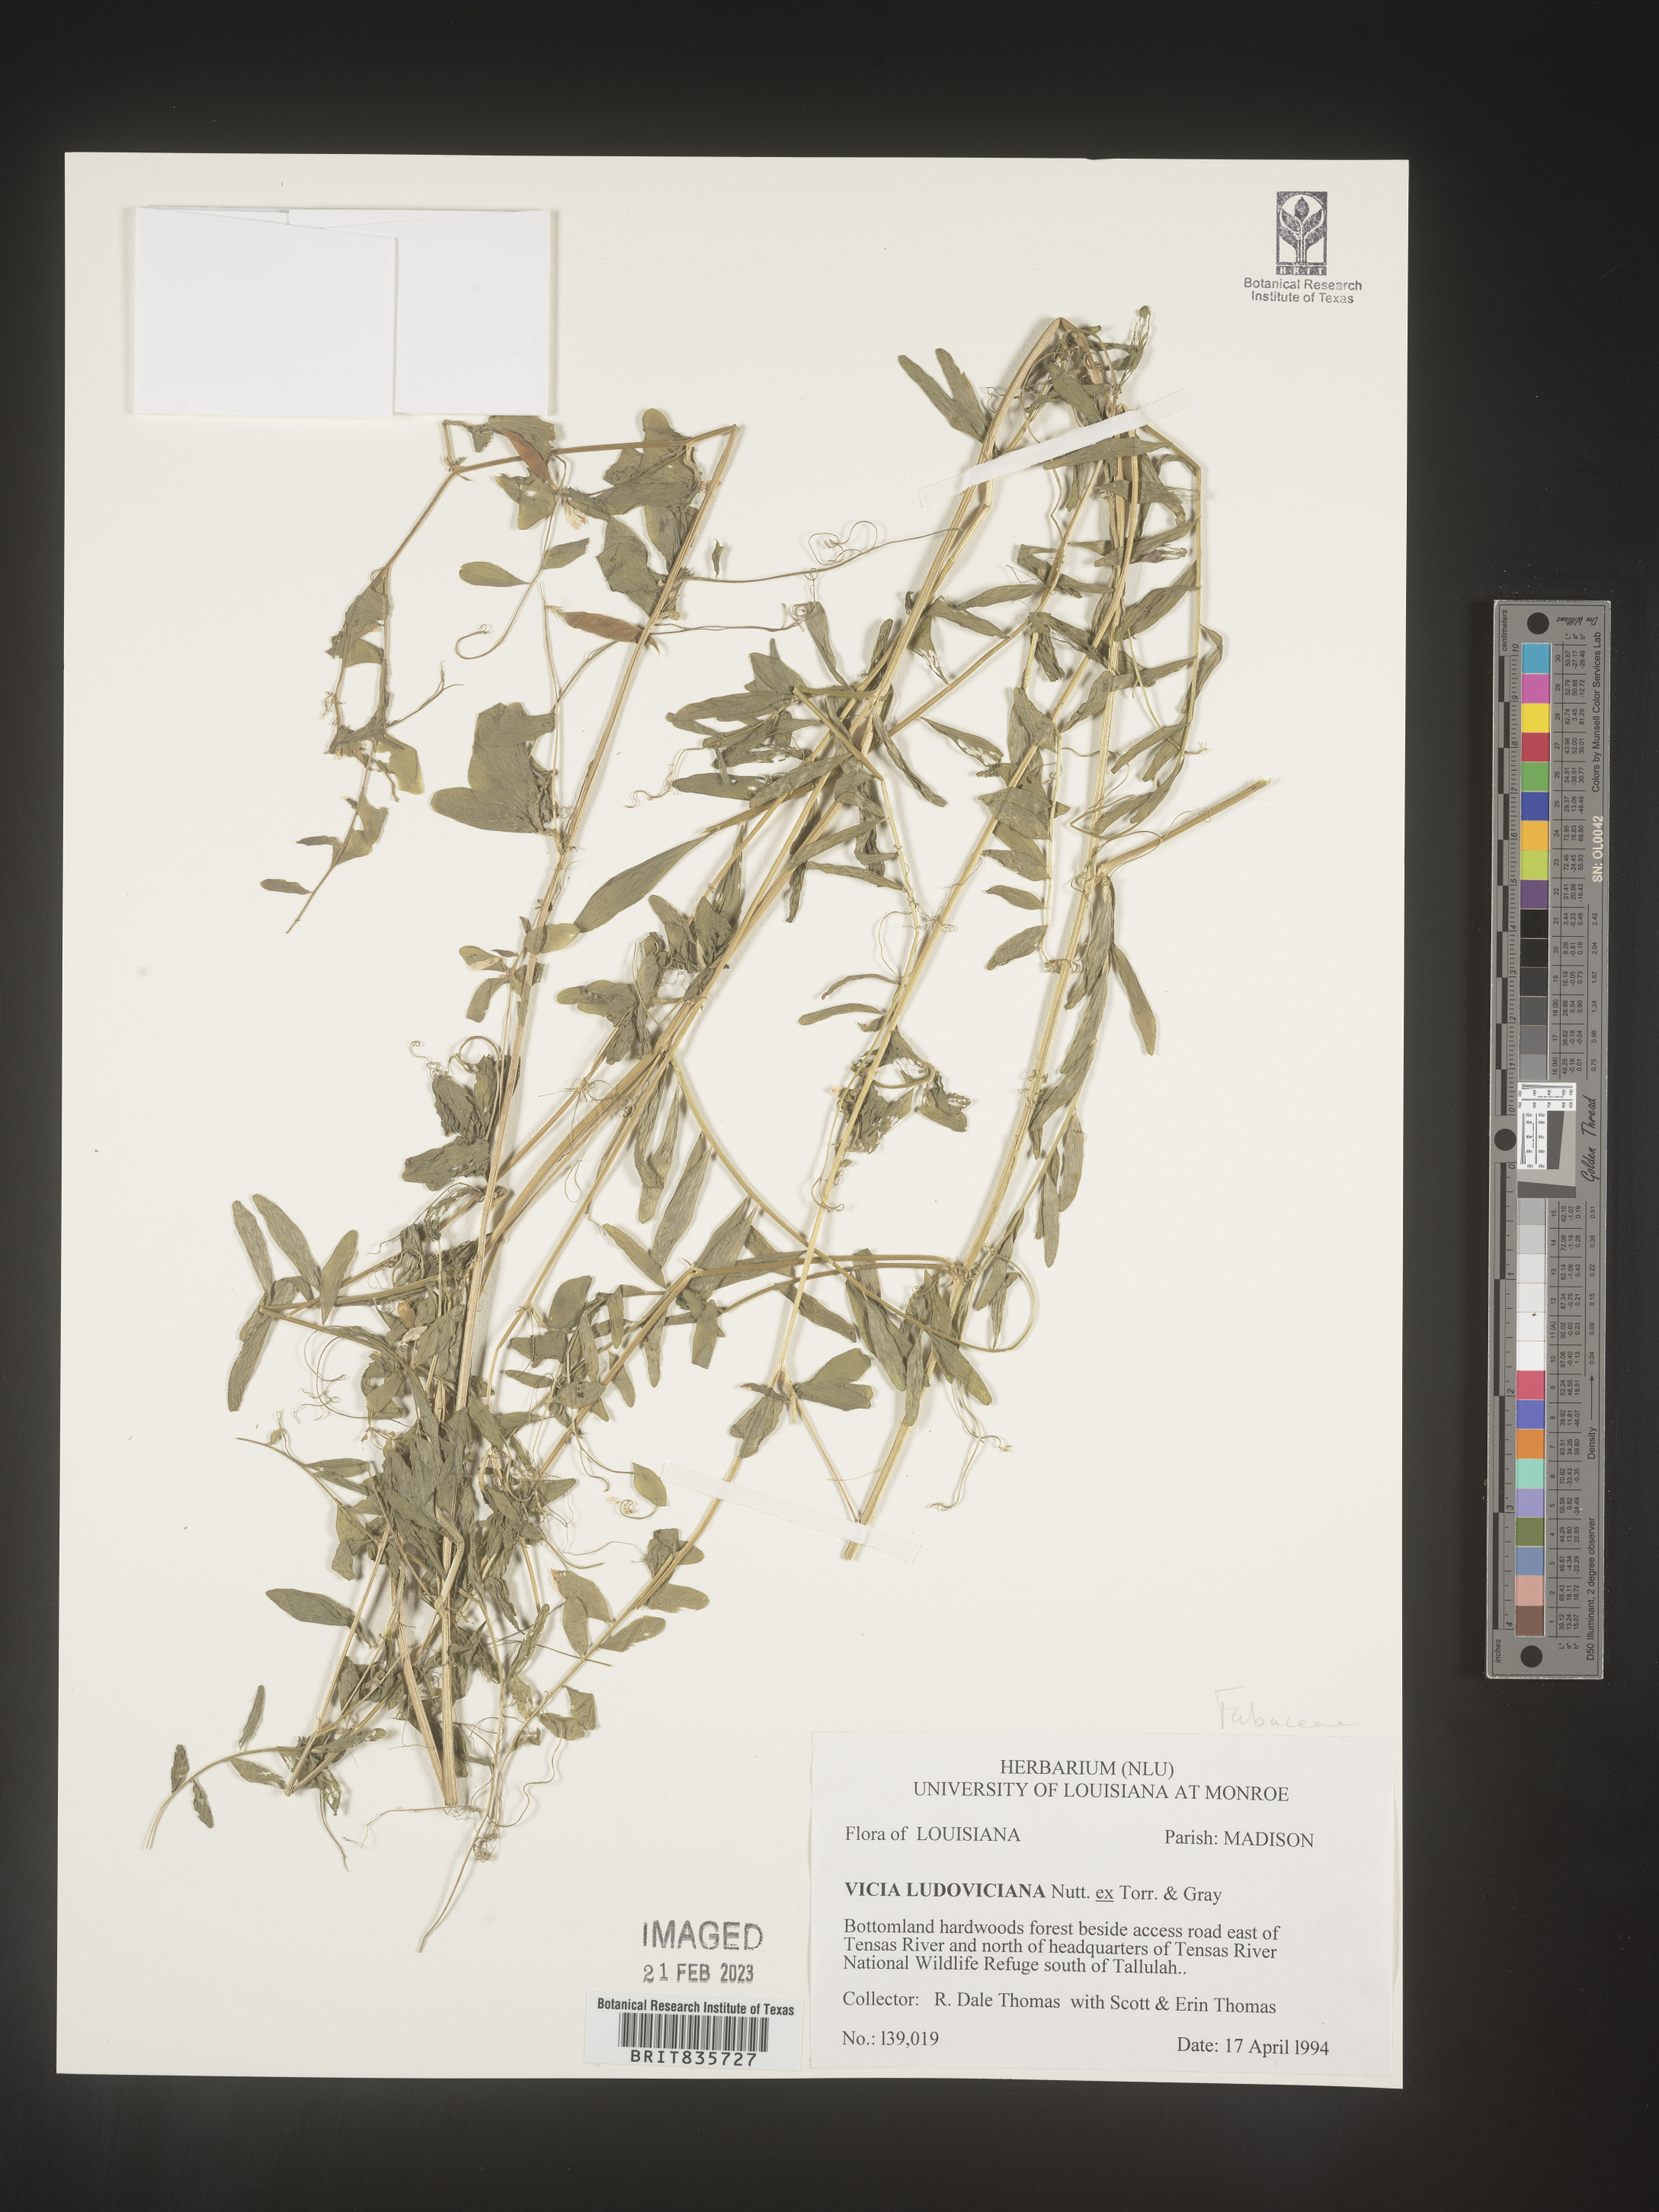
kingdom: Plantae
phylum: Tracheophyta
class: Magnoliopsida
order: Fabales
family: Fabaceae
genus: Vicia
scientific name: Vicia ludoviciana
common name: Louisiana vetch
